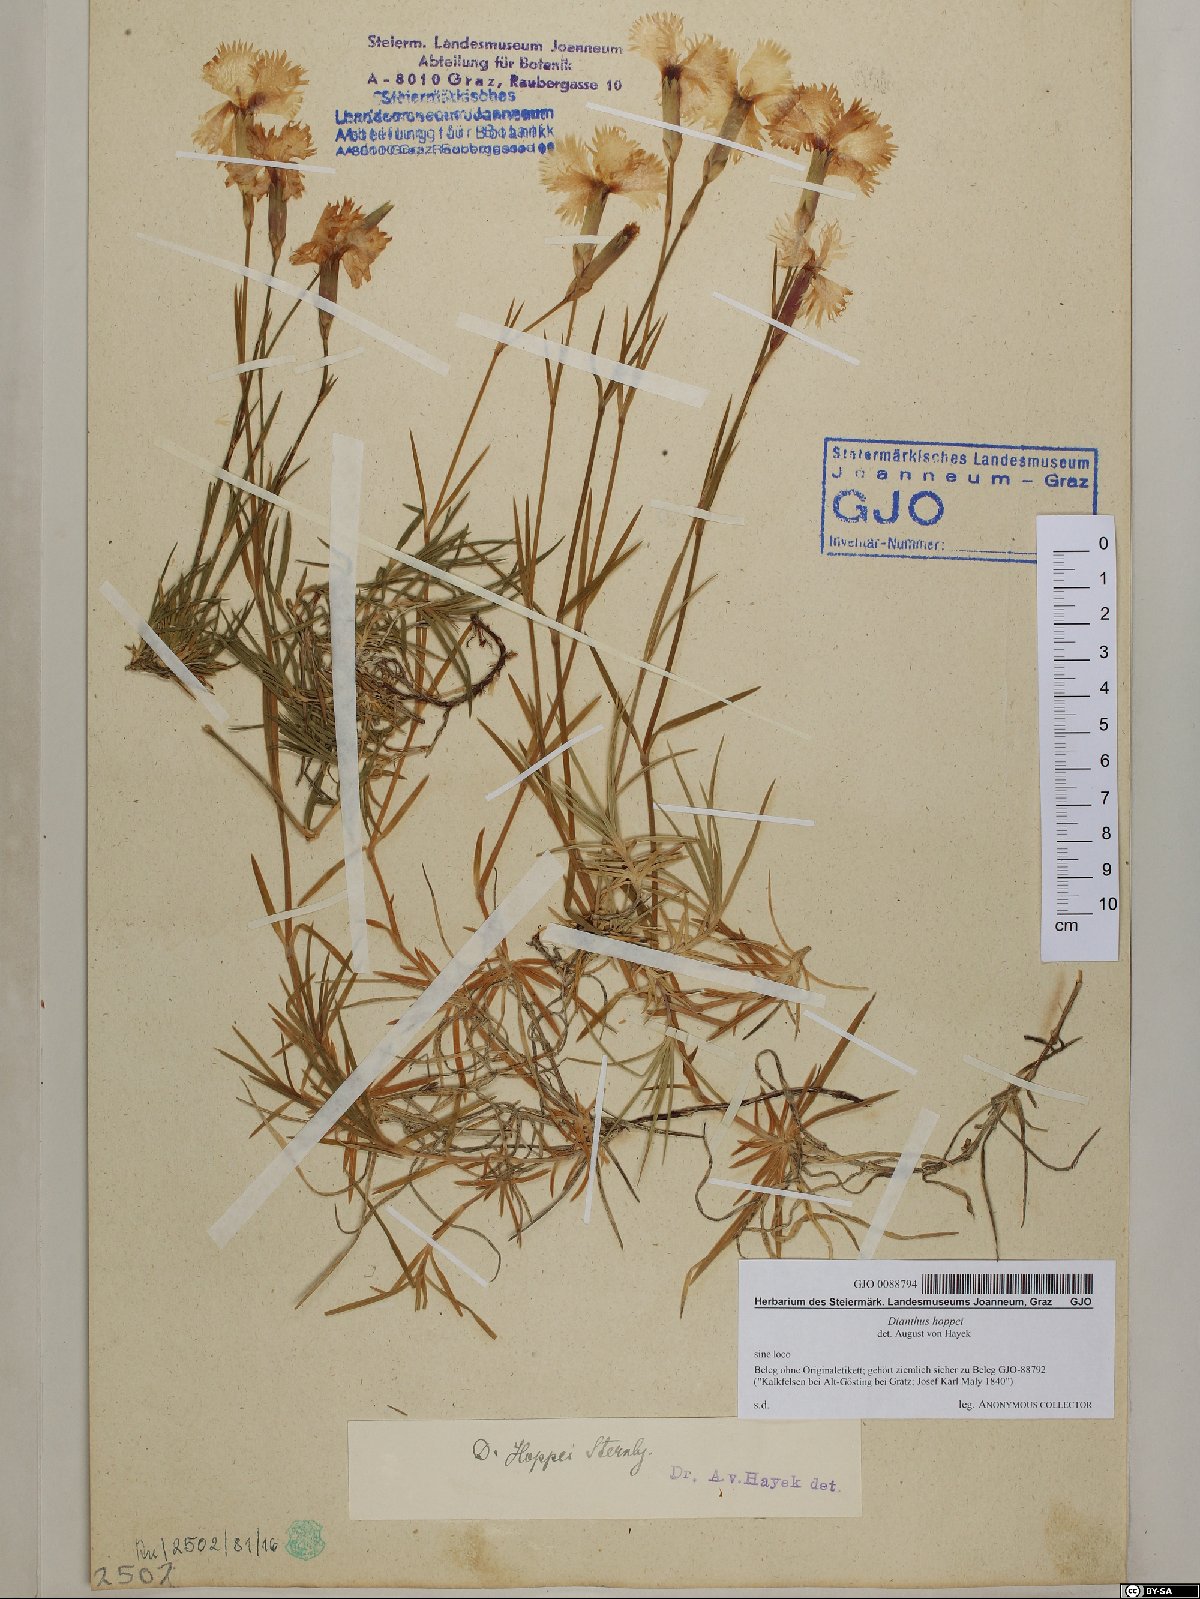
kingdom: Plantae
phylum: Tracheophyta
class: Magnoliopsida
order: Caryophyllales
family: Caryophyllaceae
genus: Dianthus
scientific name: Dianthus plumarius
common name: Pink
